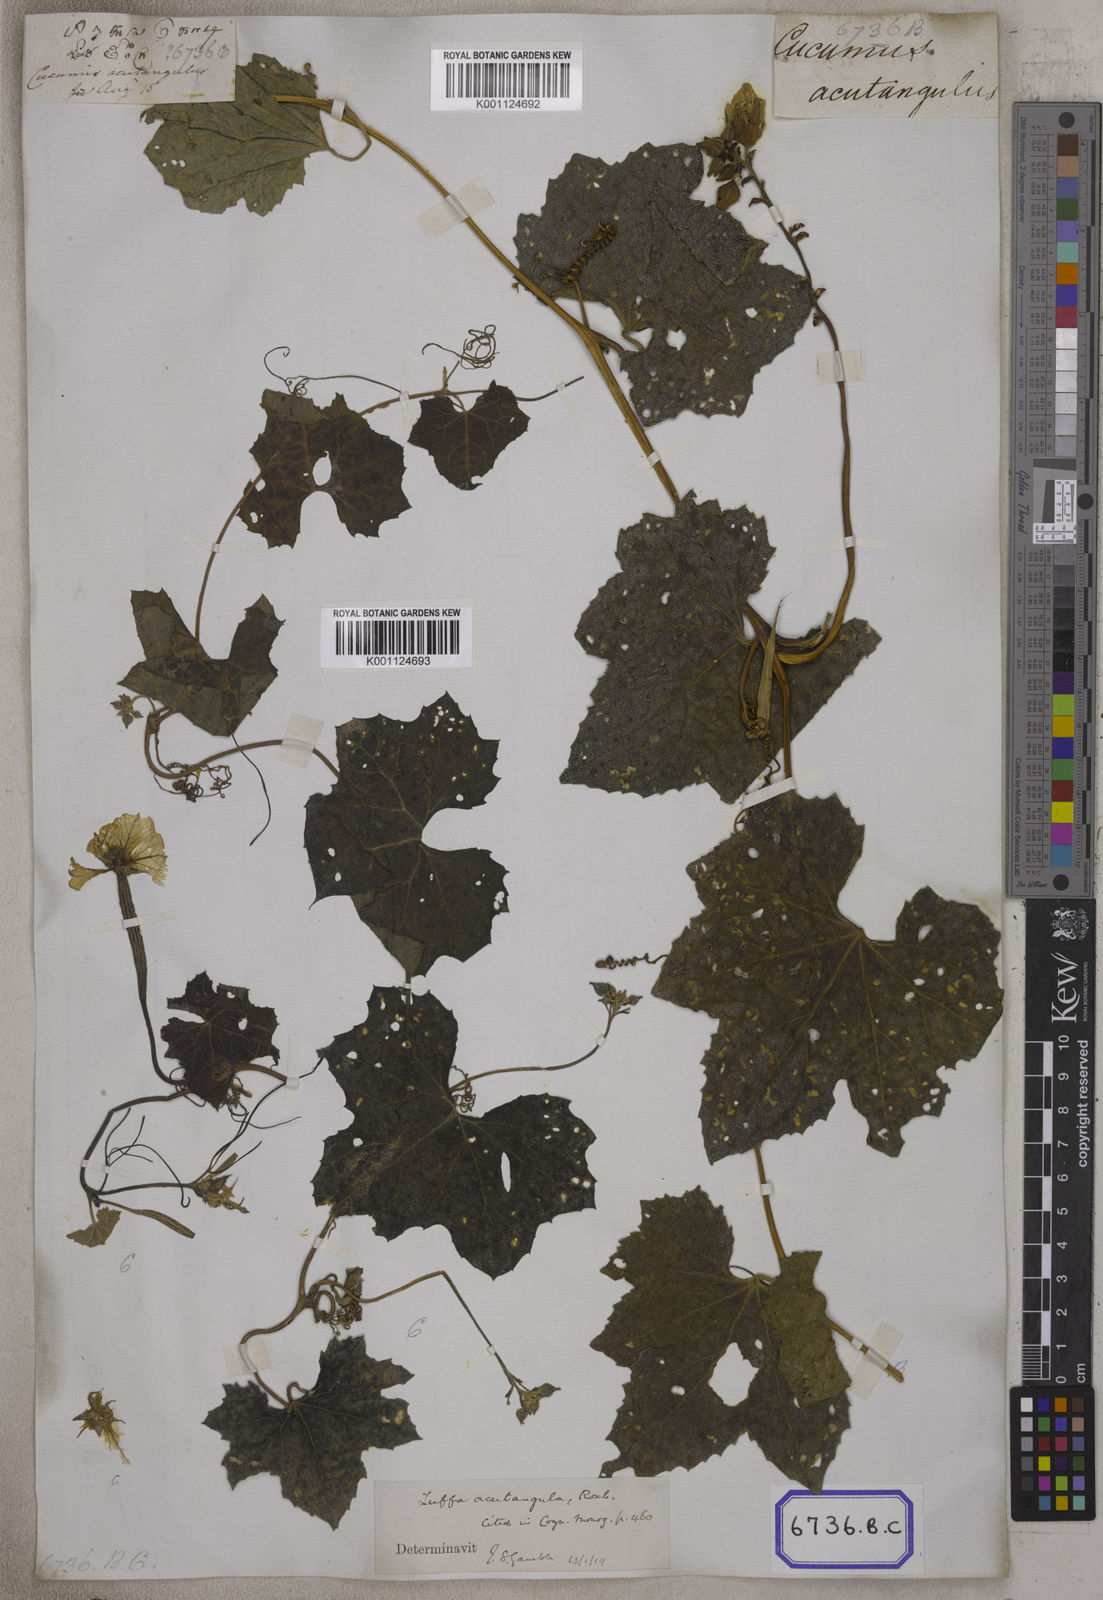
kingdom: Plantae
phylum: Tracheophyta
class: Magnoliopsida
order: Cucurbitales
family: Cucurbitaceae
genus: Cucumis
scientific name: Cucumis
